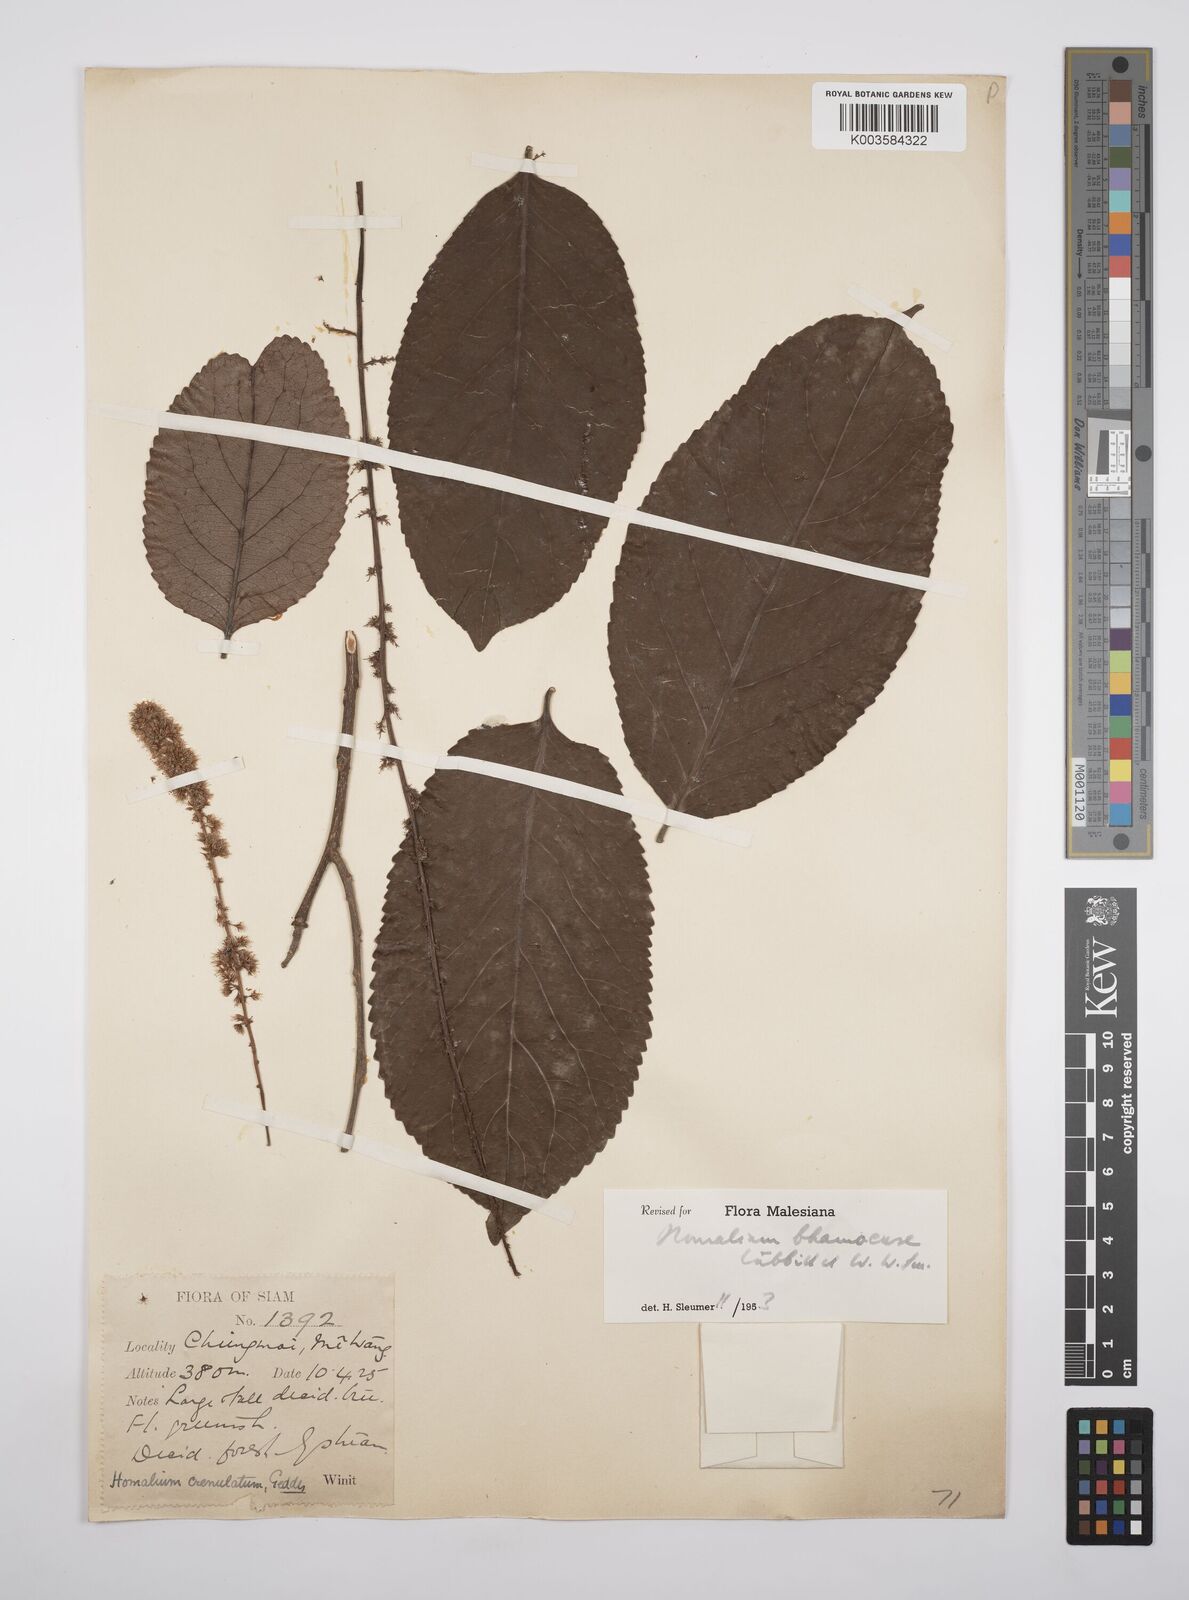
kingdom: Plantae
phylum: Tracheophyta
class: Magnoliopsida
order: Malpighiales
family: Salicaceae
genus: Homalium
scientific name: Homalium ceylanicum
